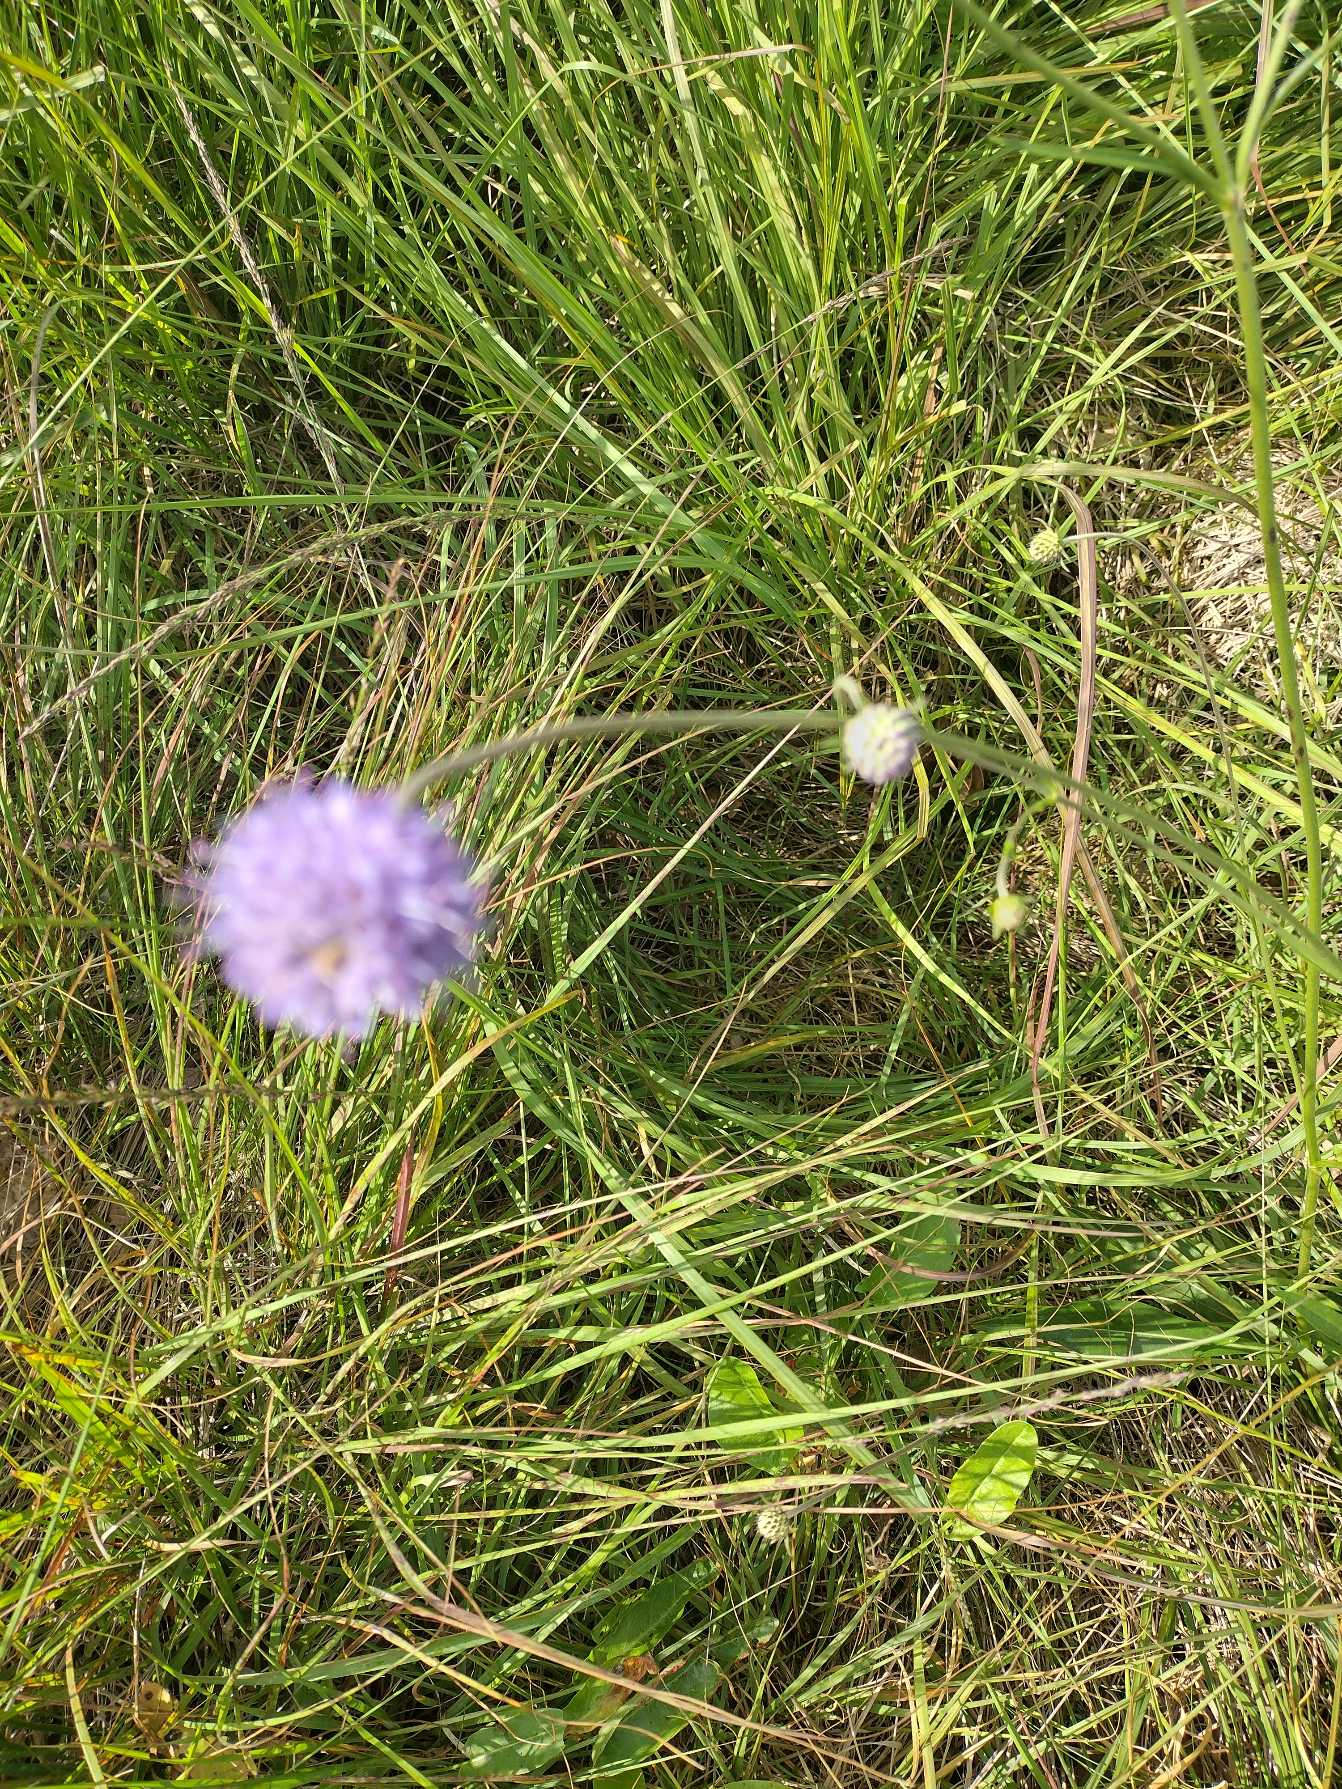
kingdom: Plantae
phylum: Tracheophyta
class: Magnoliopsida
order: Dipsacales
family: Caprifoliaceae
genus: Succisa
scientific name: Succisa pratensis
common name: Djævelsbid
